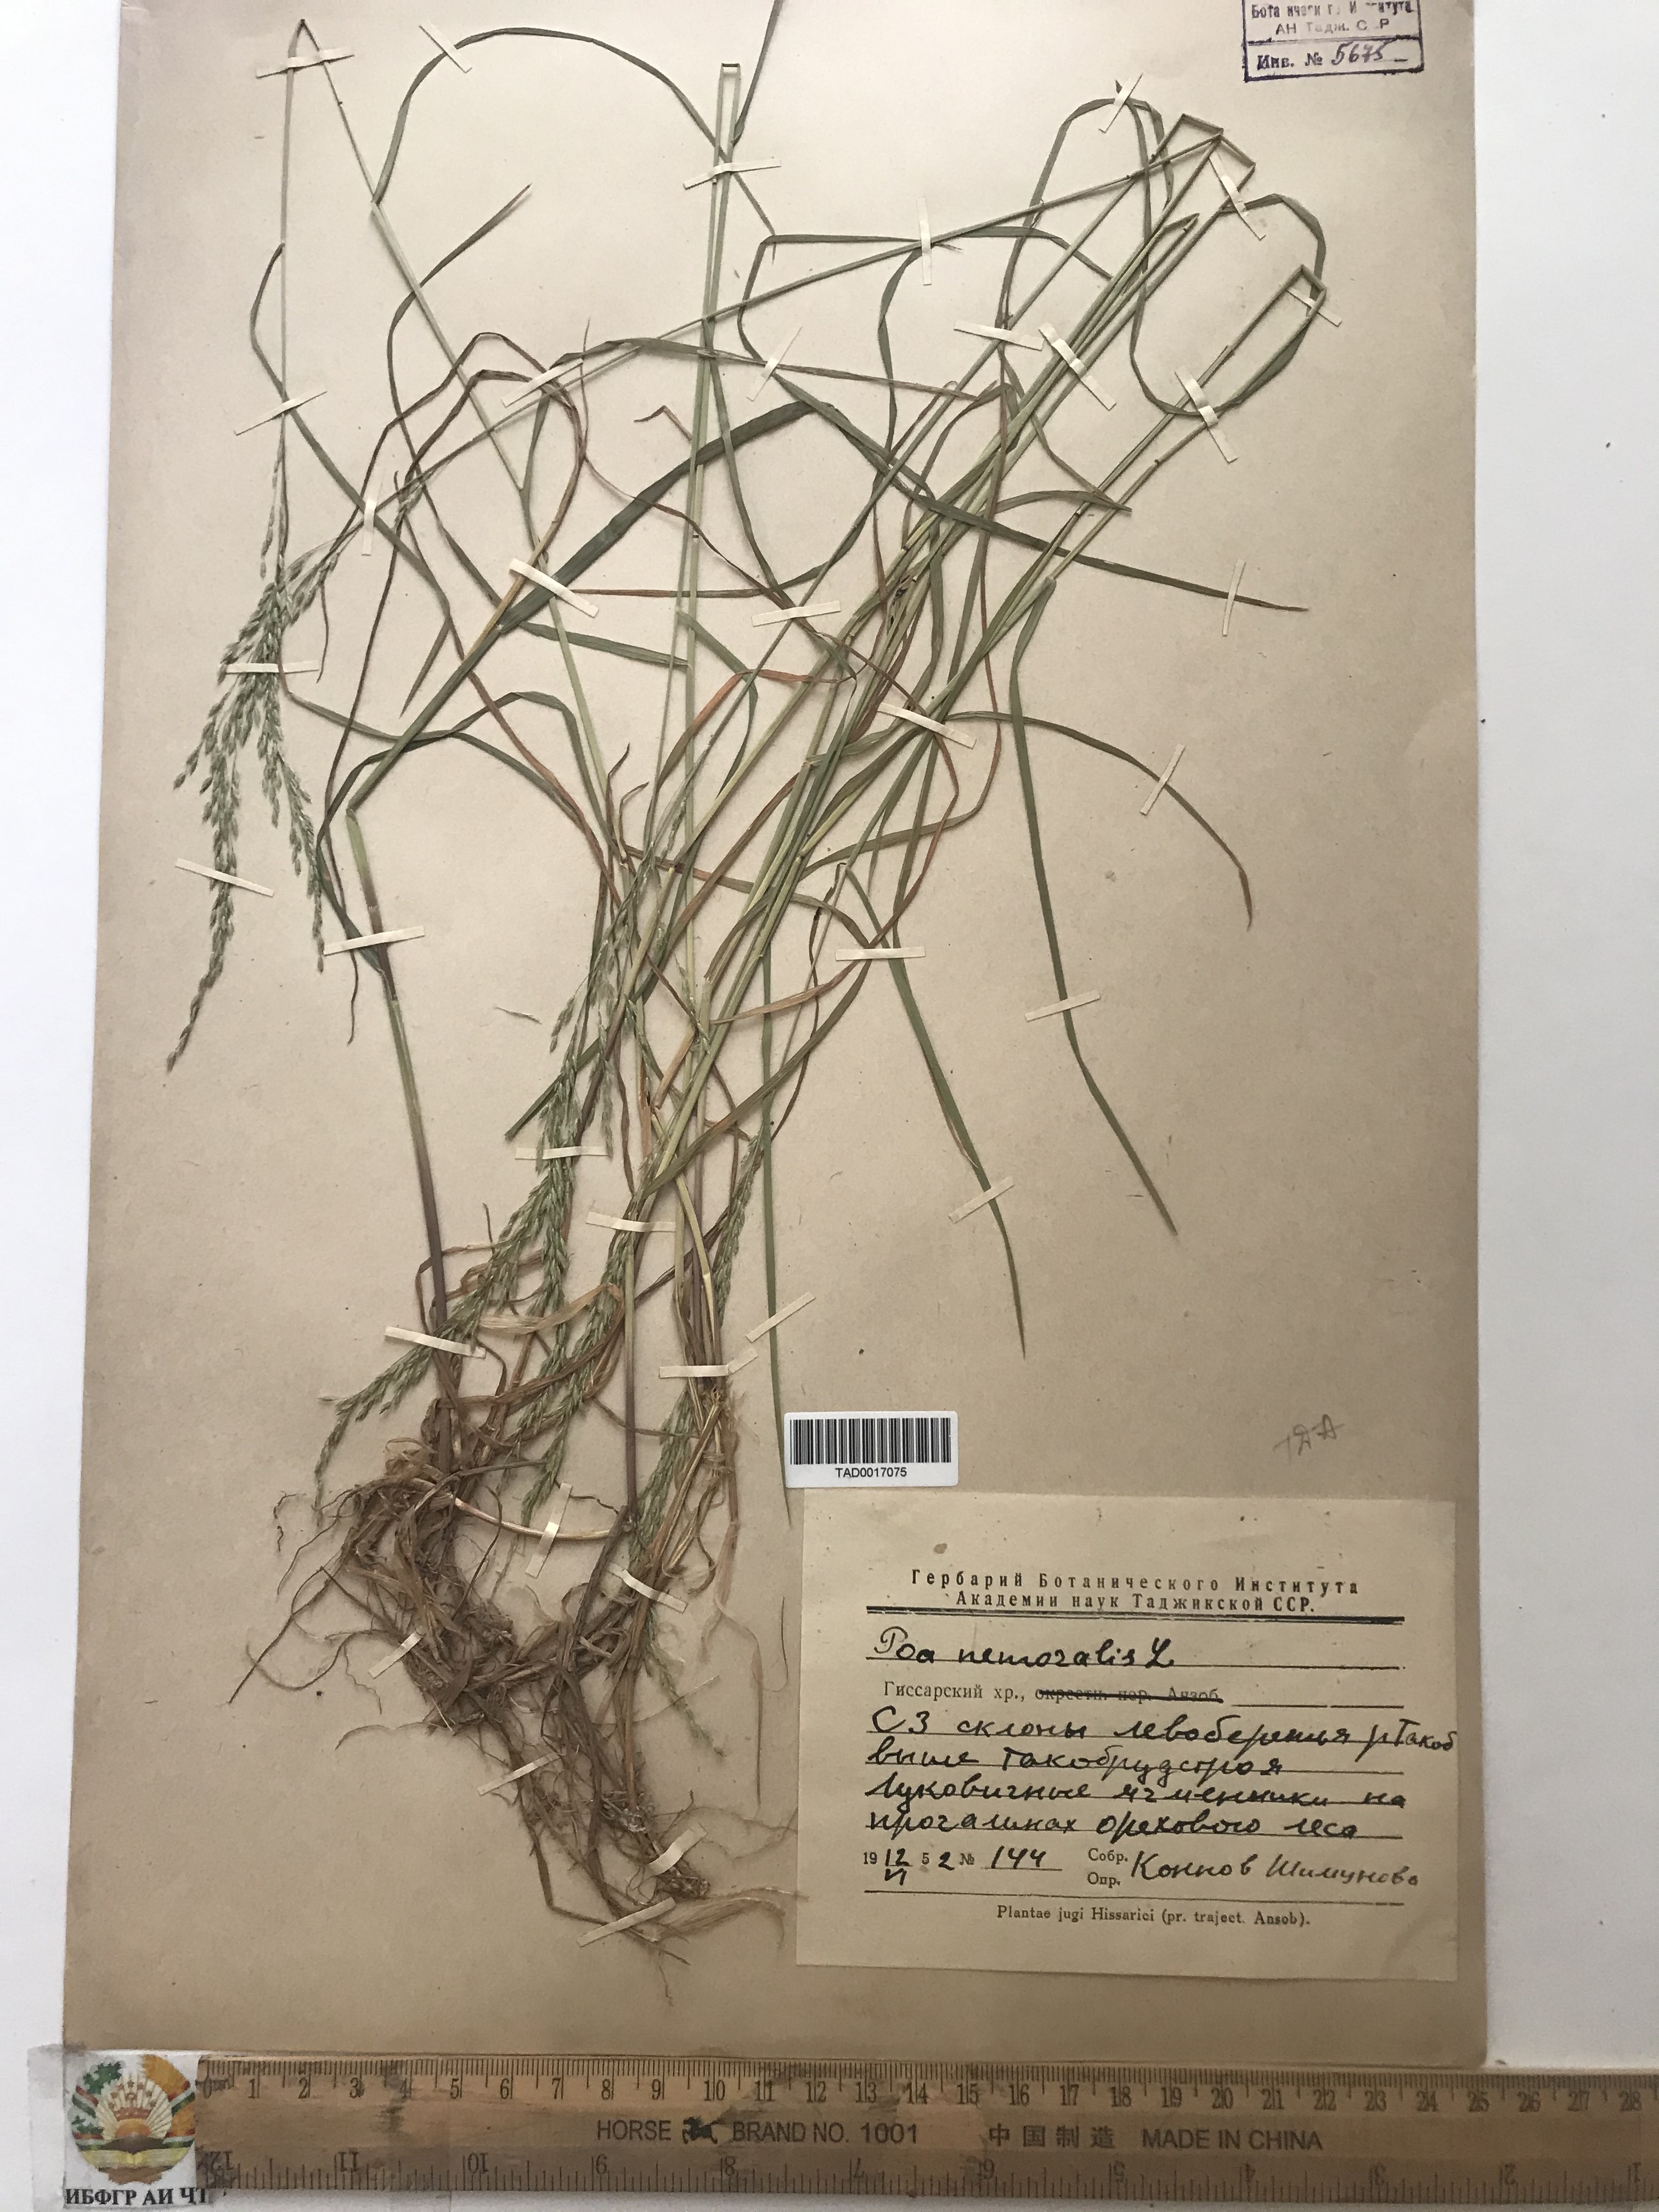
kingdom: Plantae
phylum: Tracheophyta
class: Liliopsida
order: Poales
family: Poaceae
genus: Poa
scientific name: Poa nemoralis
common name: Wood bluegrass
